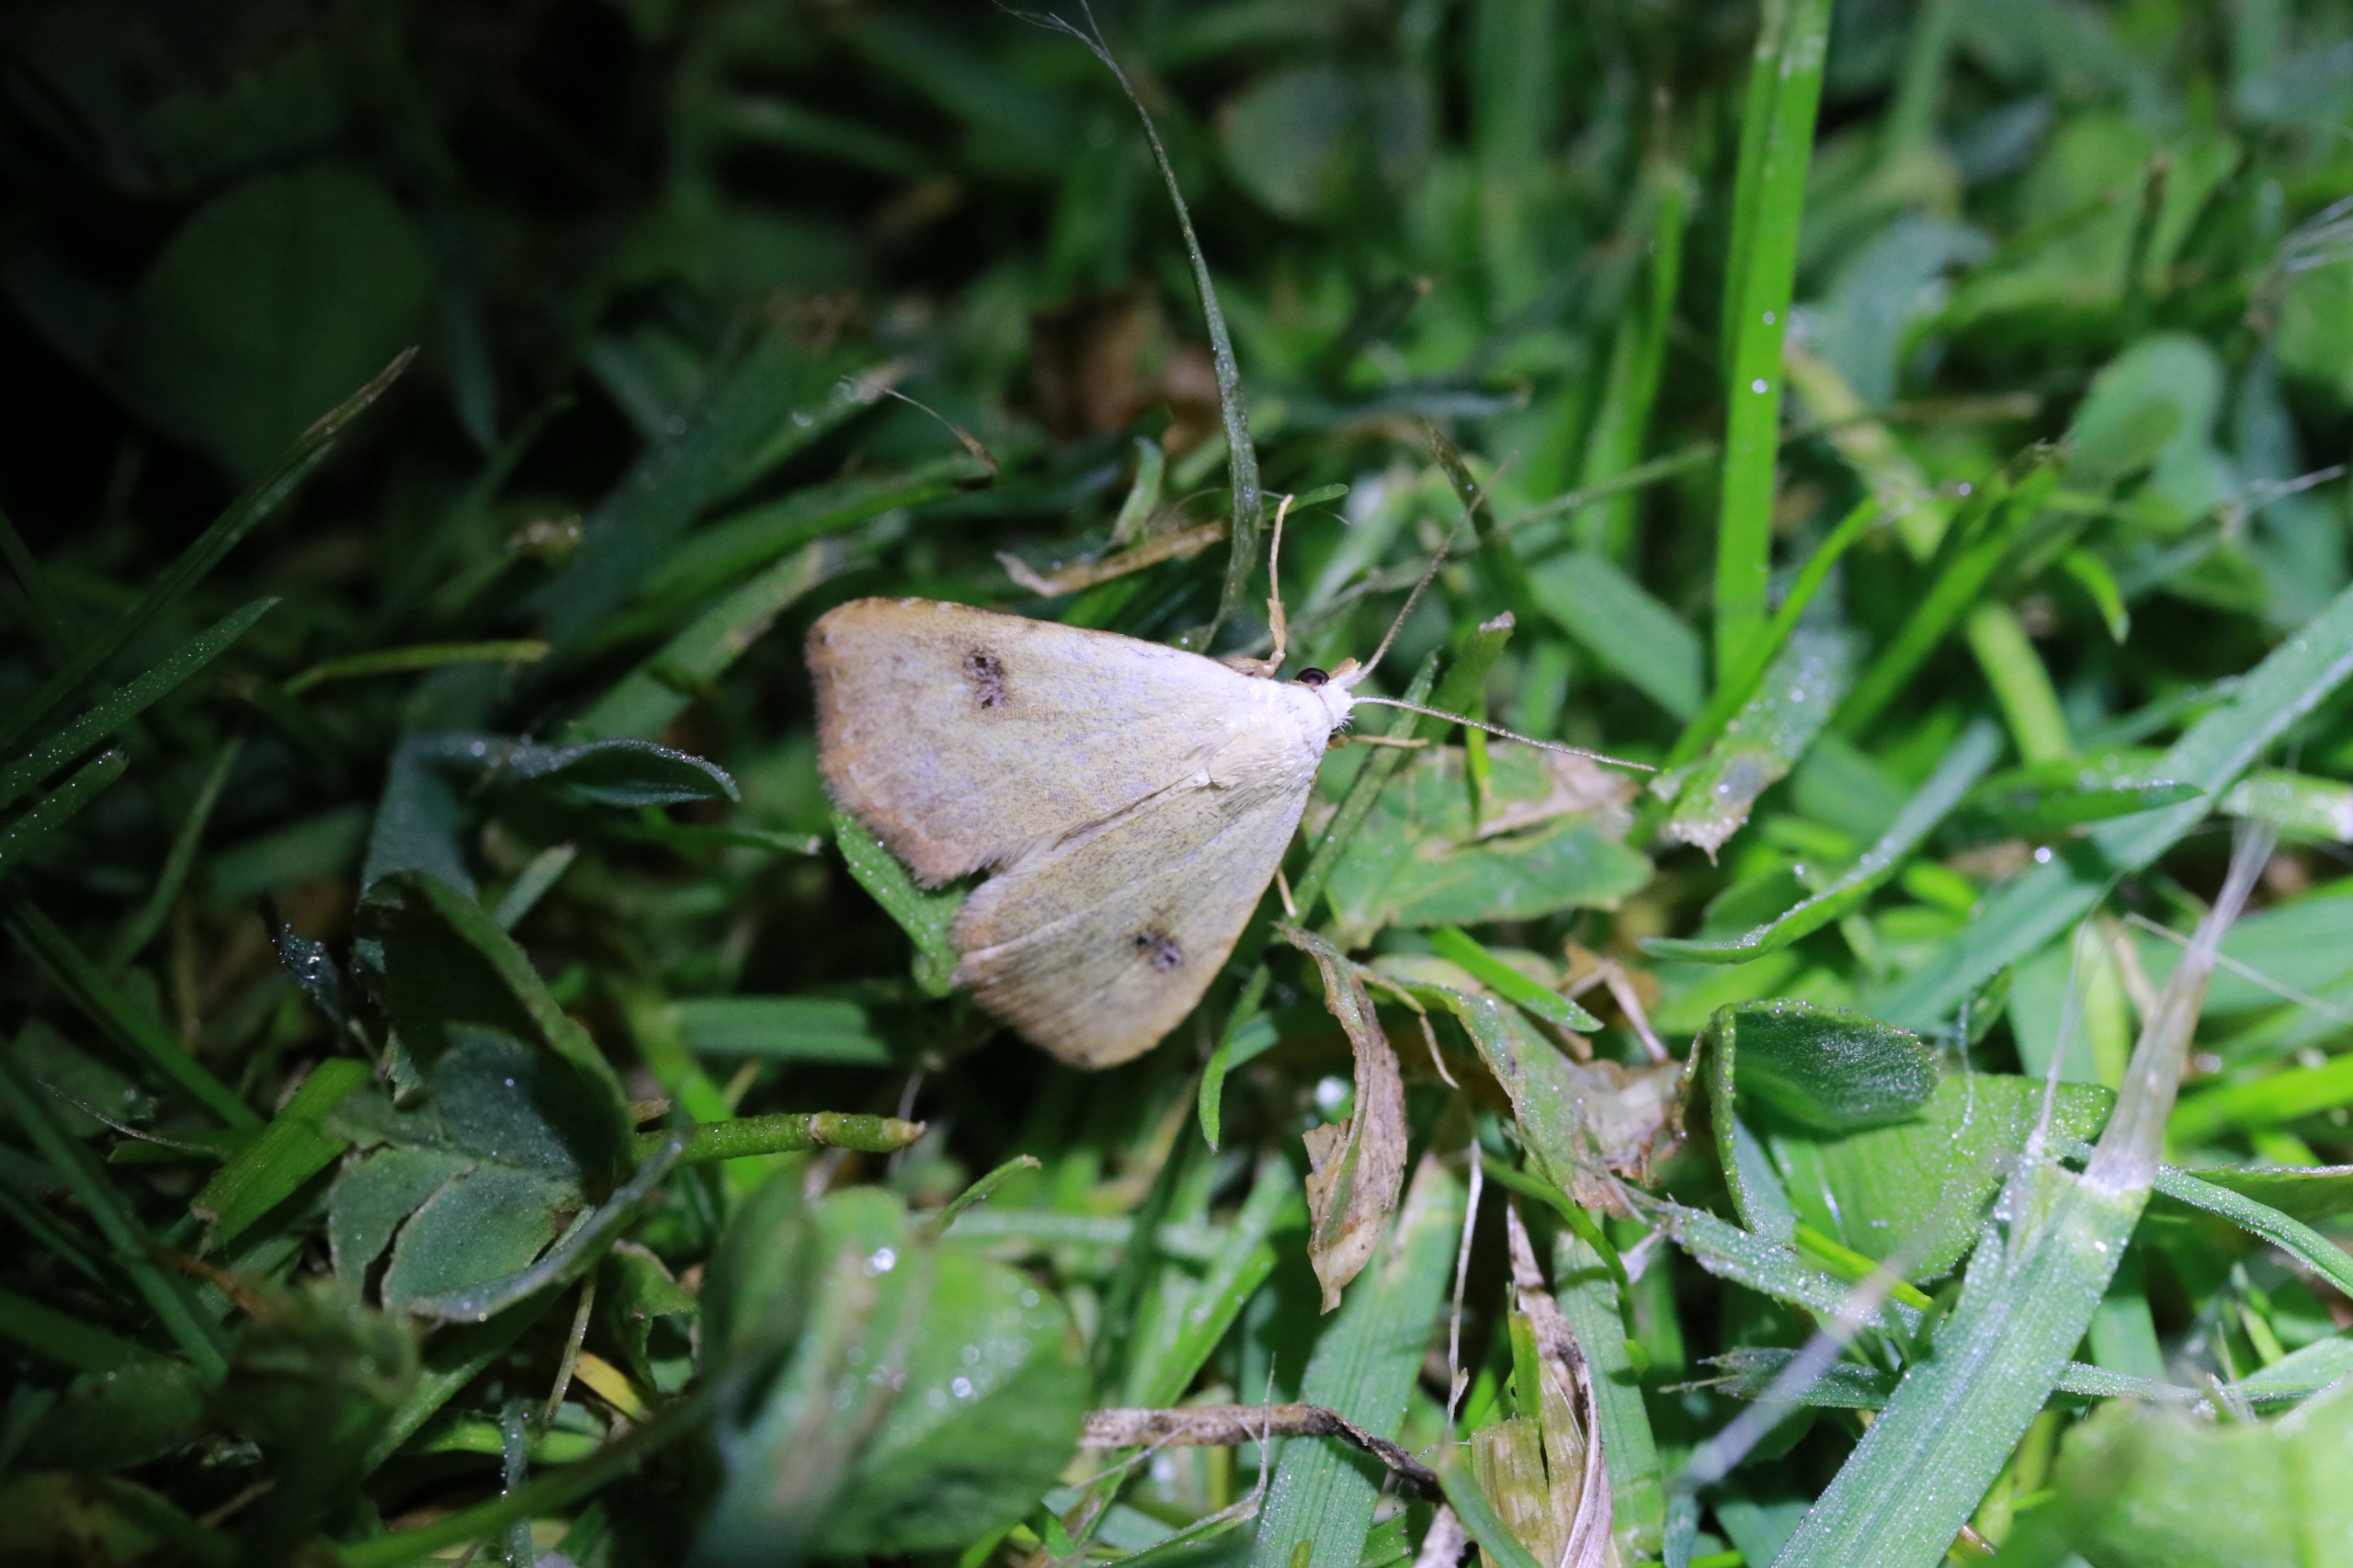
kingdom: Animalia
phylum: Arthropoda
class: Insecta
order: Lepidoptera
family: Erebidae
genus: Rivula
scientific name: Rivula sericealis
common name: Lille å-ugle
